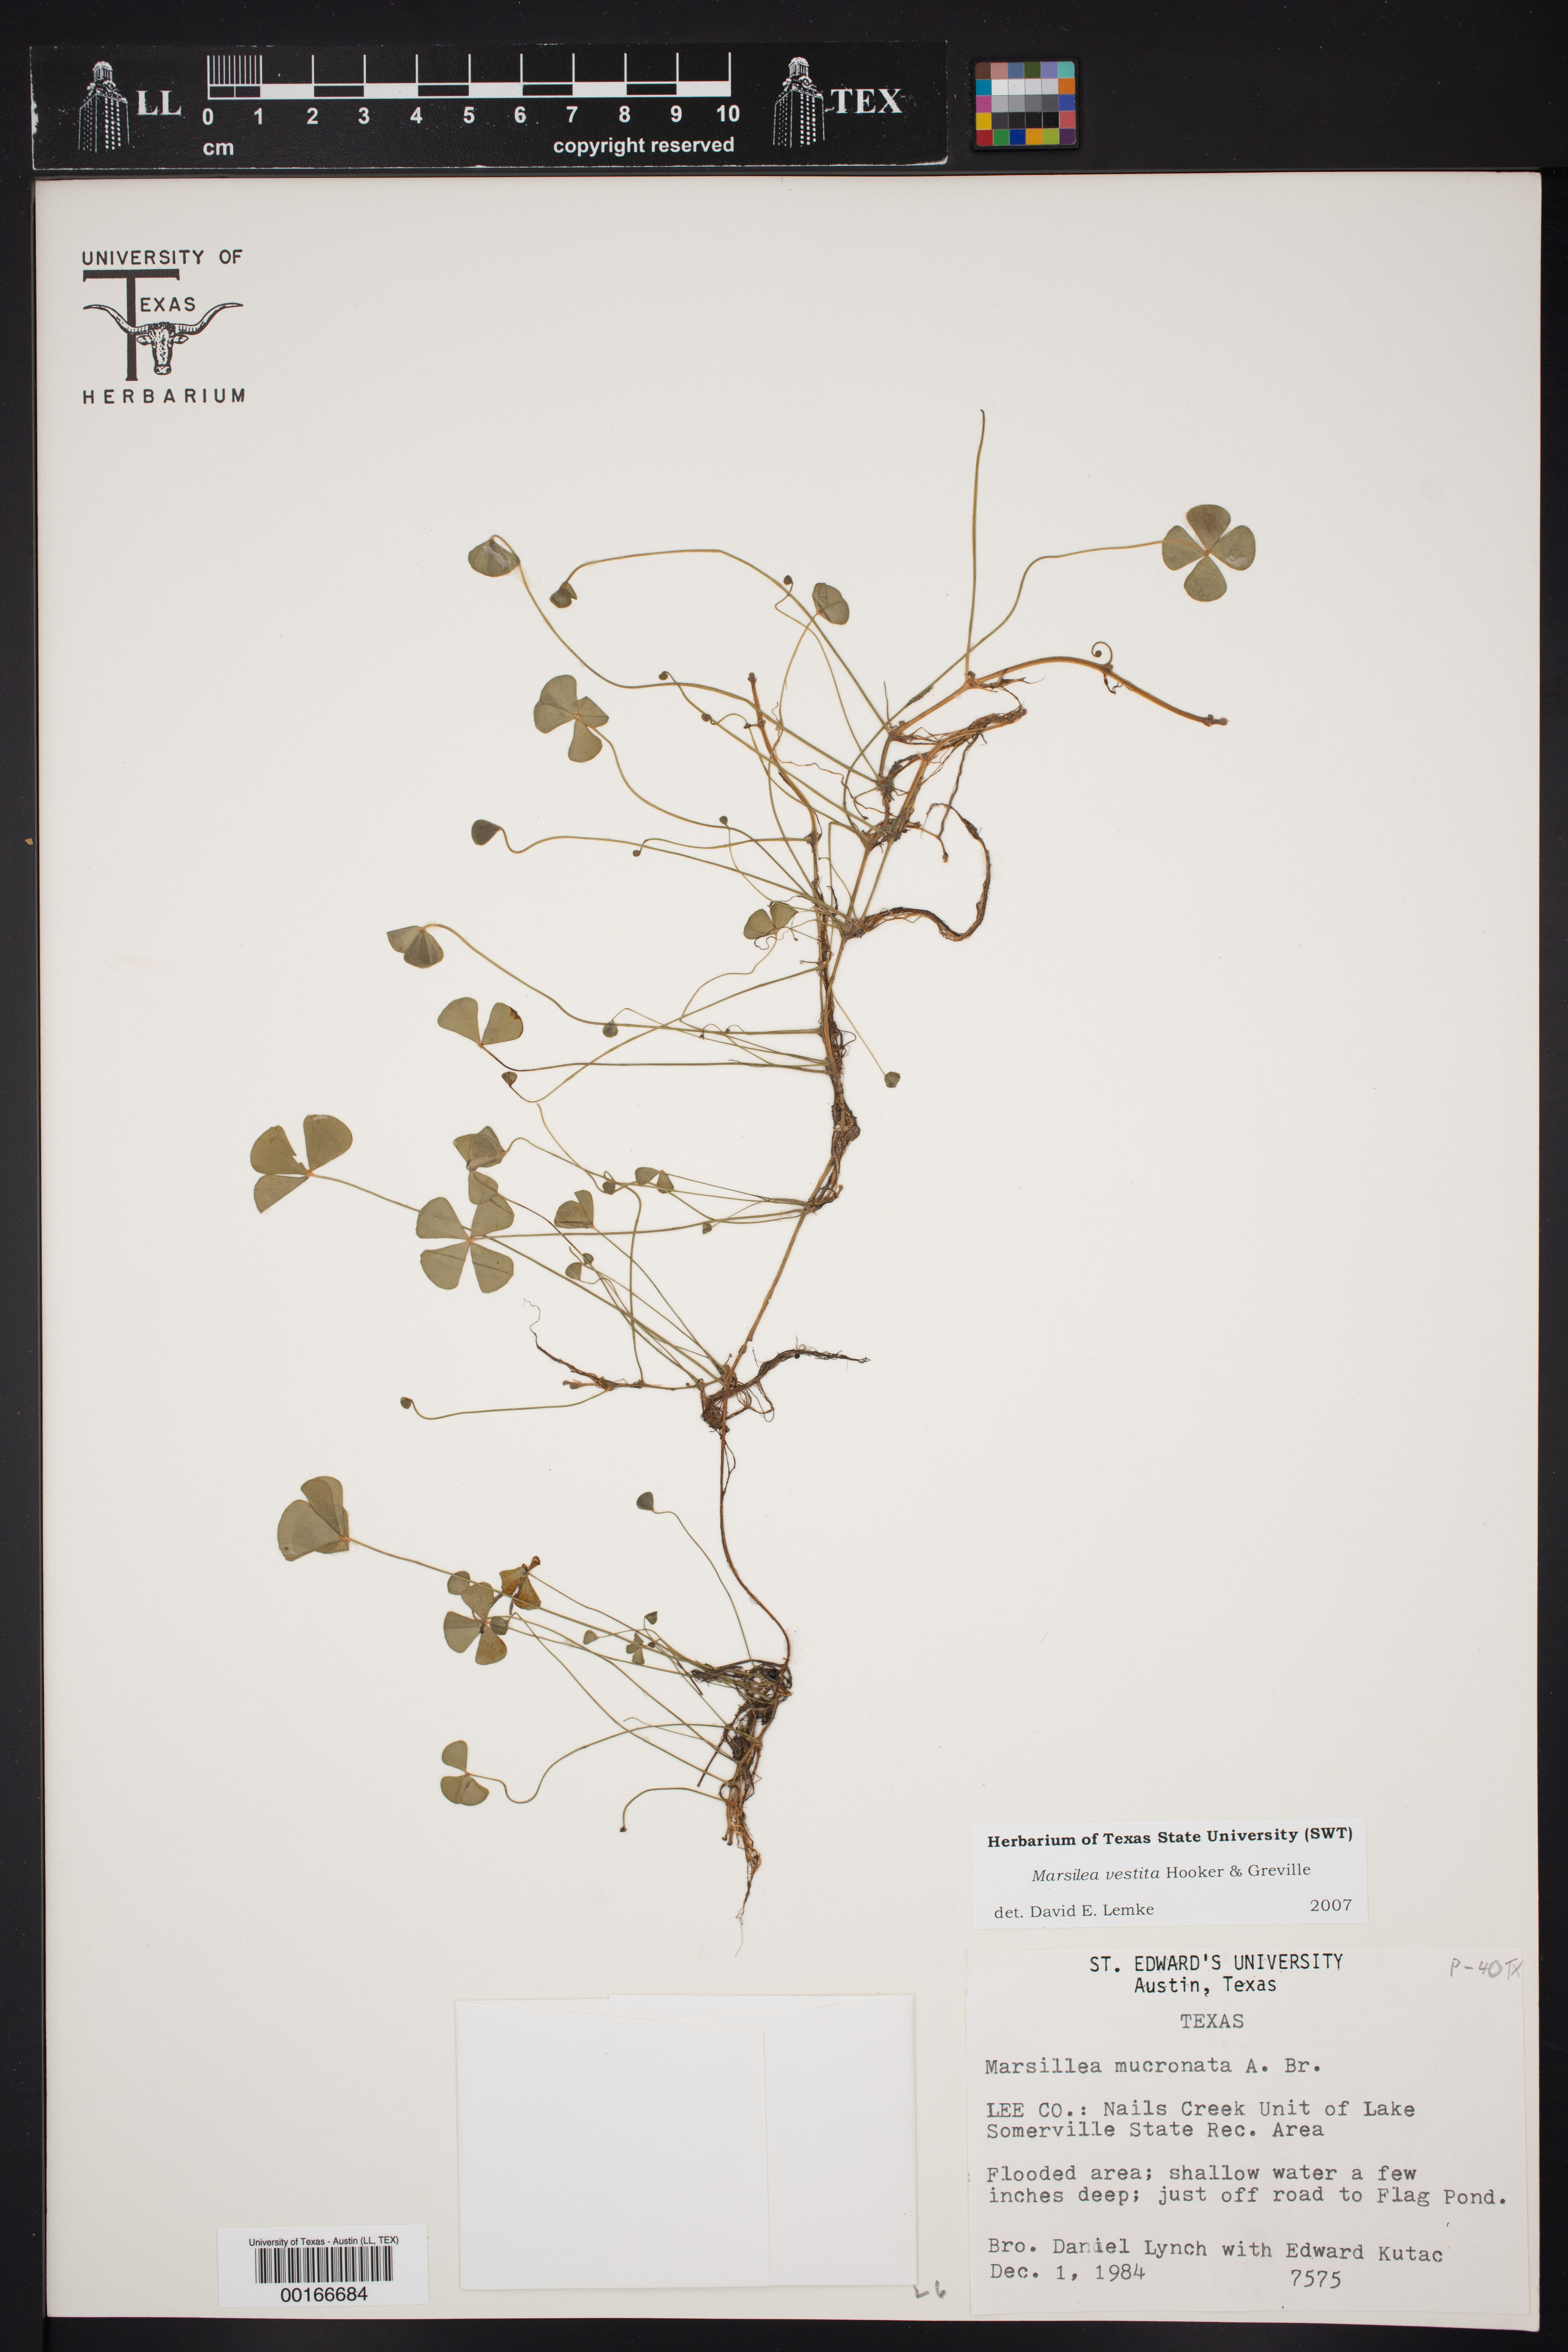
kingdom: Plantae
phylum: Tracheophyta
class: Polypodiopsida
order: Salviniales
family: Marsileaceae
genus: Marsilea
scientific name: Marsilea vestita
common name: Hooked-pepperwort
